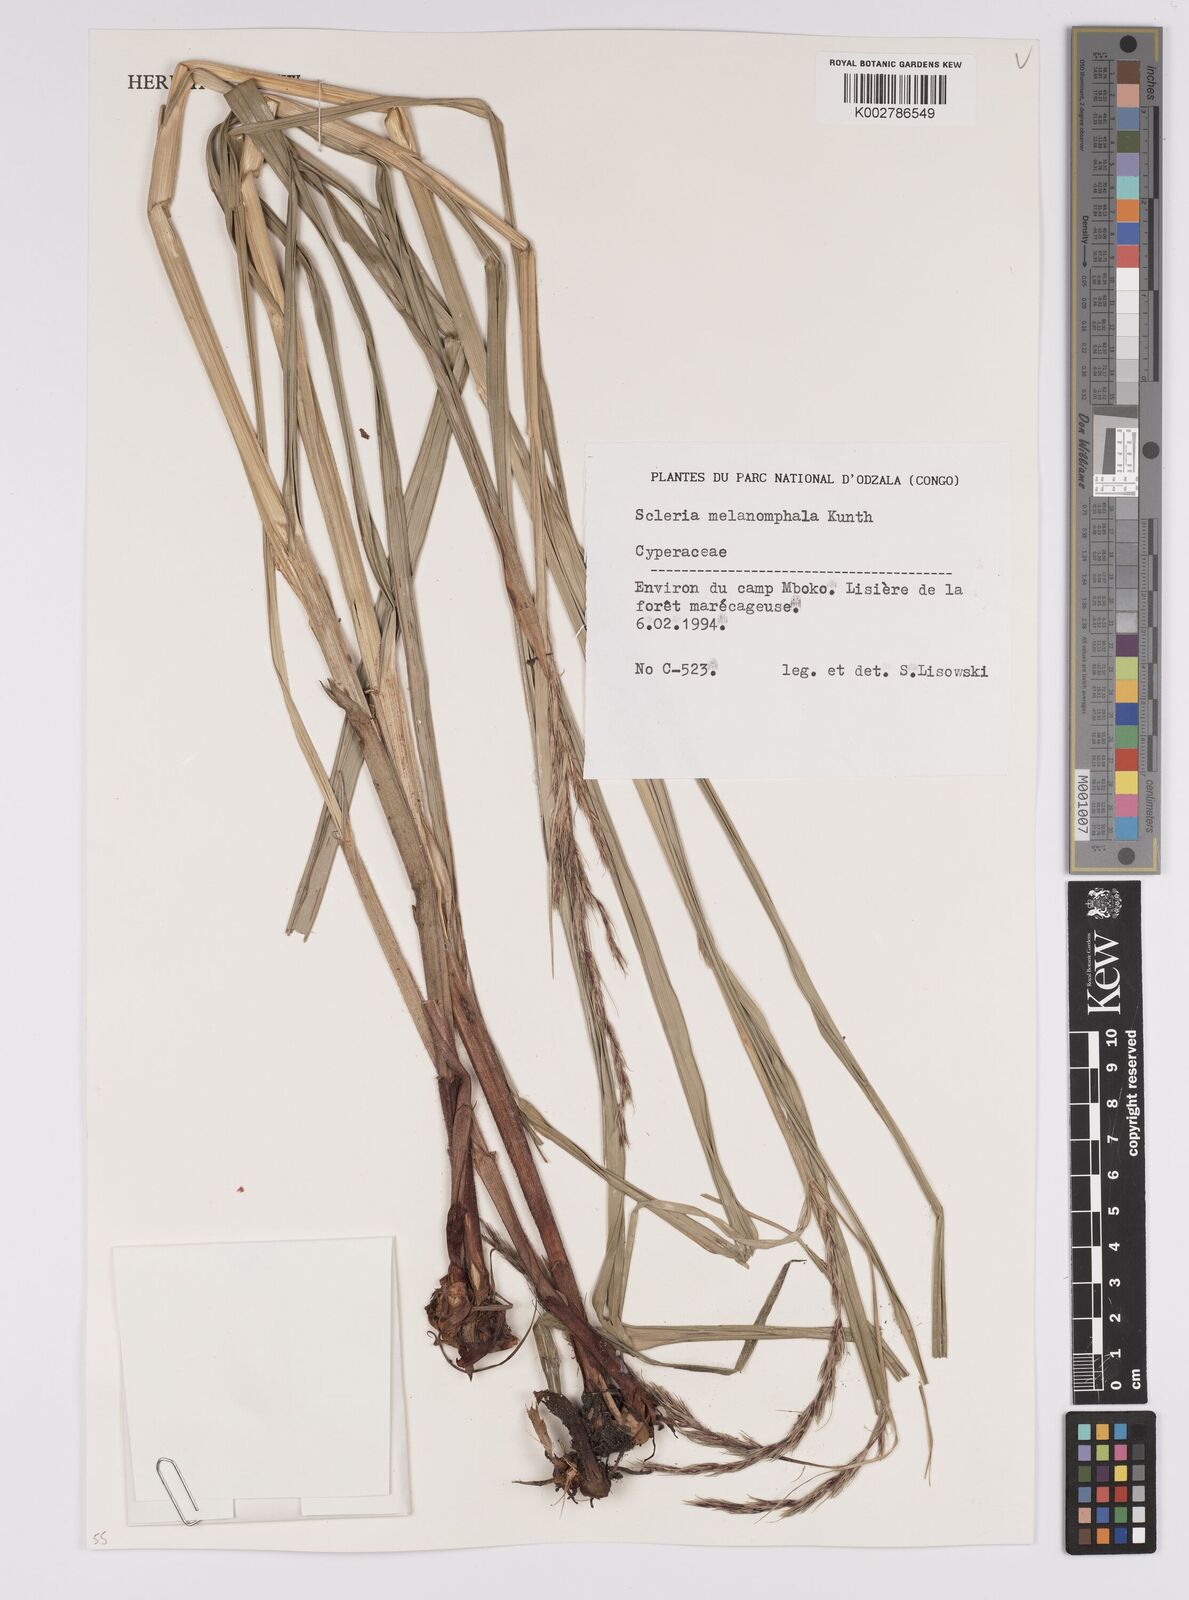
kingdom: Plantae
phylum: Tracheophyta
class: Liliopsida
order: Poales
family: Cyperaceae
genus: Scleria
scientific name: Scleria melanomphala
